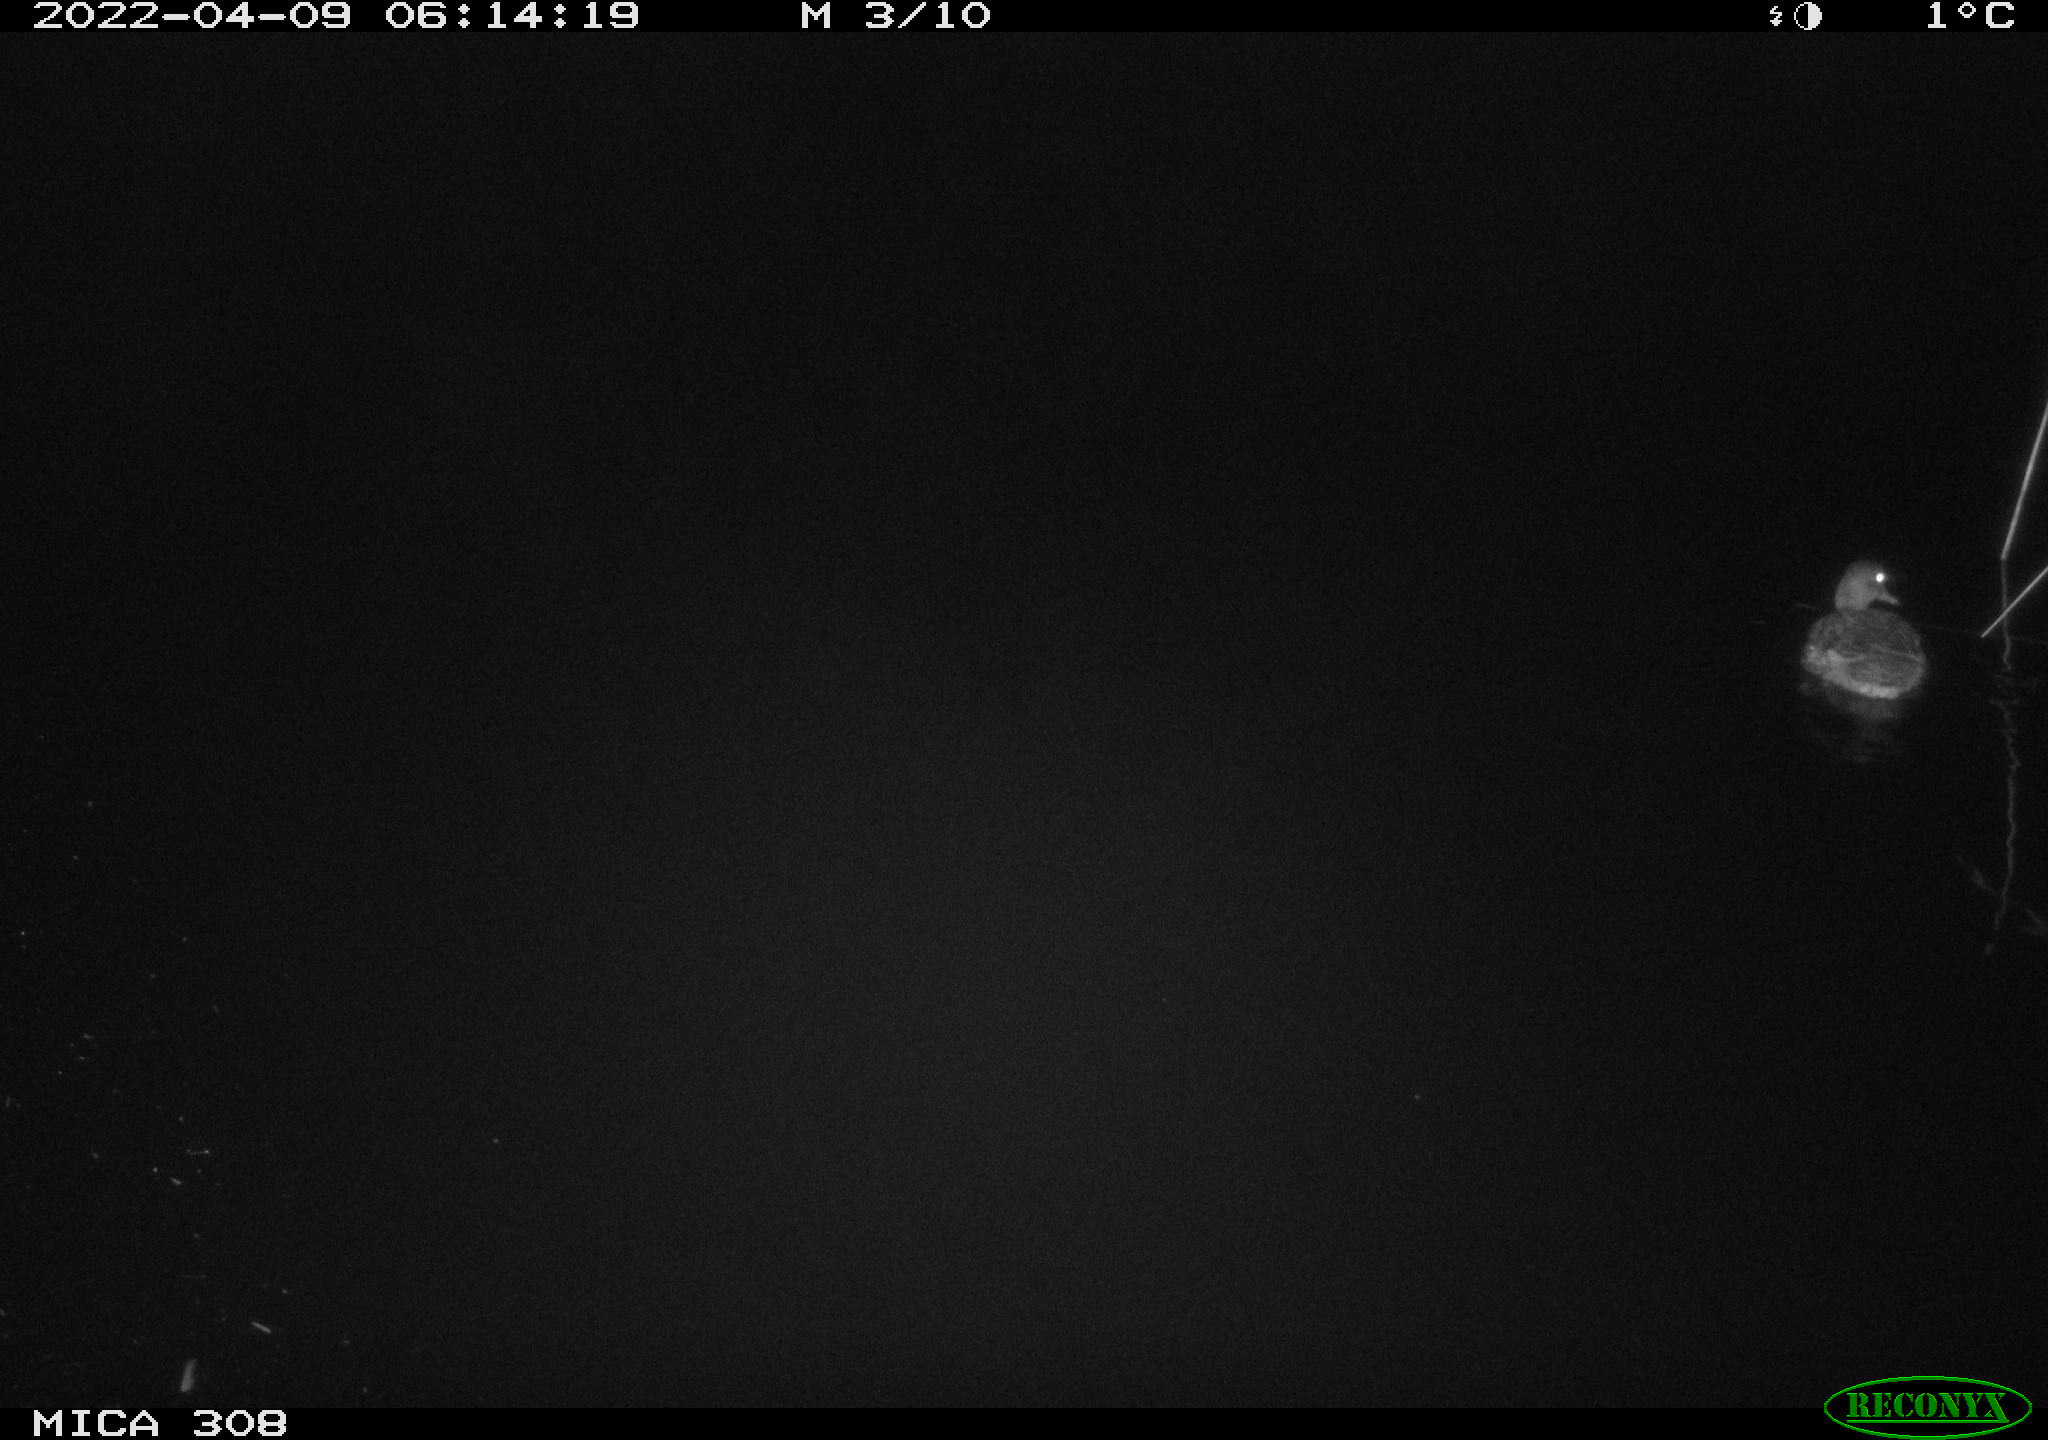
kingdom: Animalia
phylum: Chordata
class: Aves
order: Anseriformes
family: Anatidae
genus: Mareca
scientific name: Mareca strepera
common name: Gadwall
